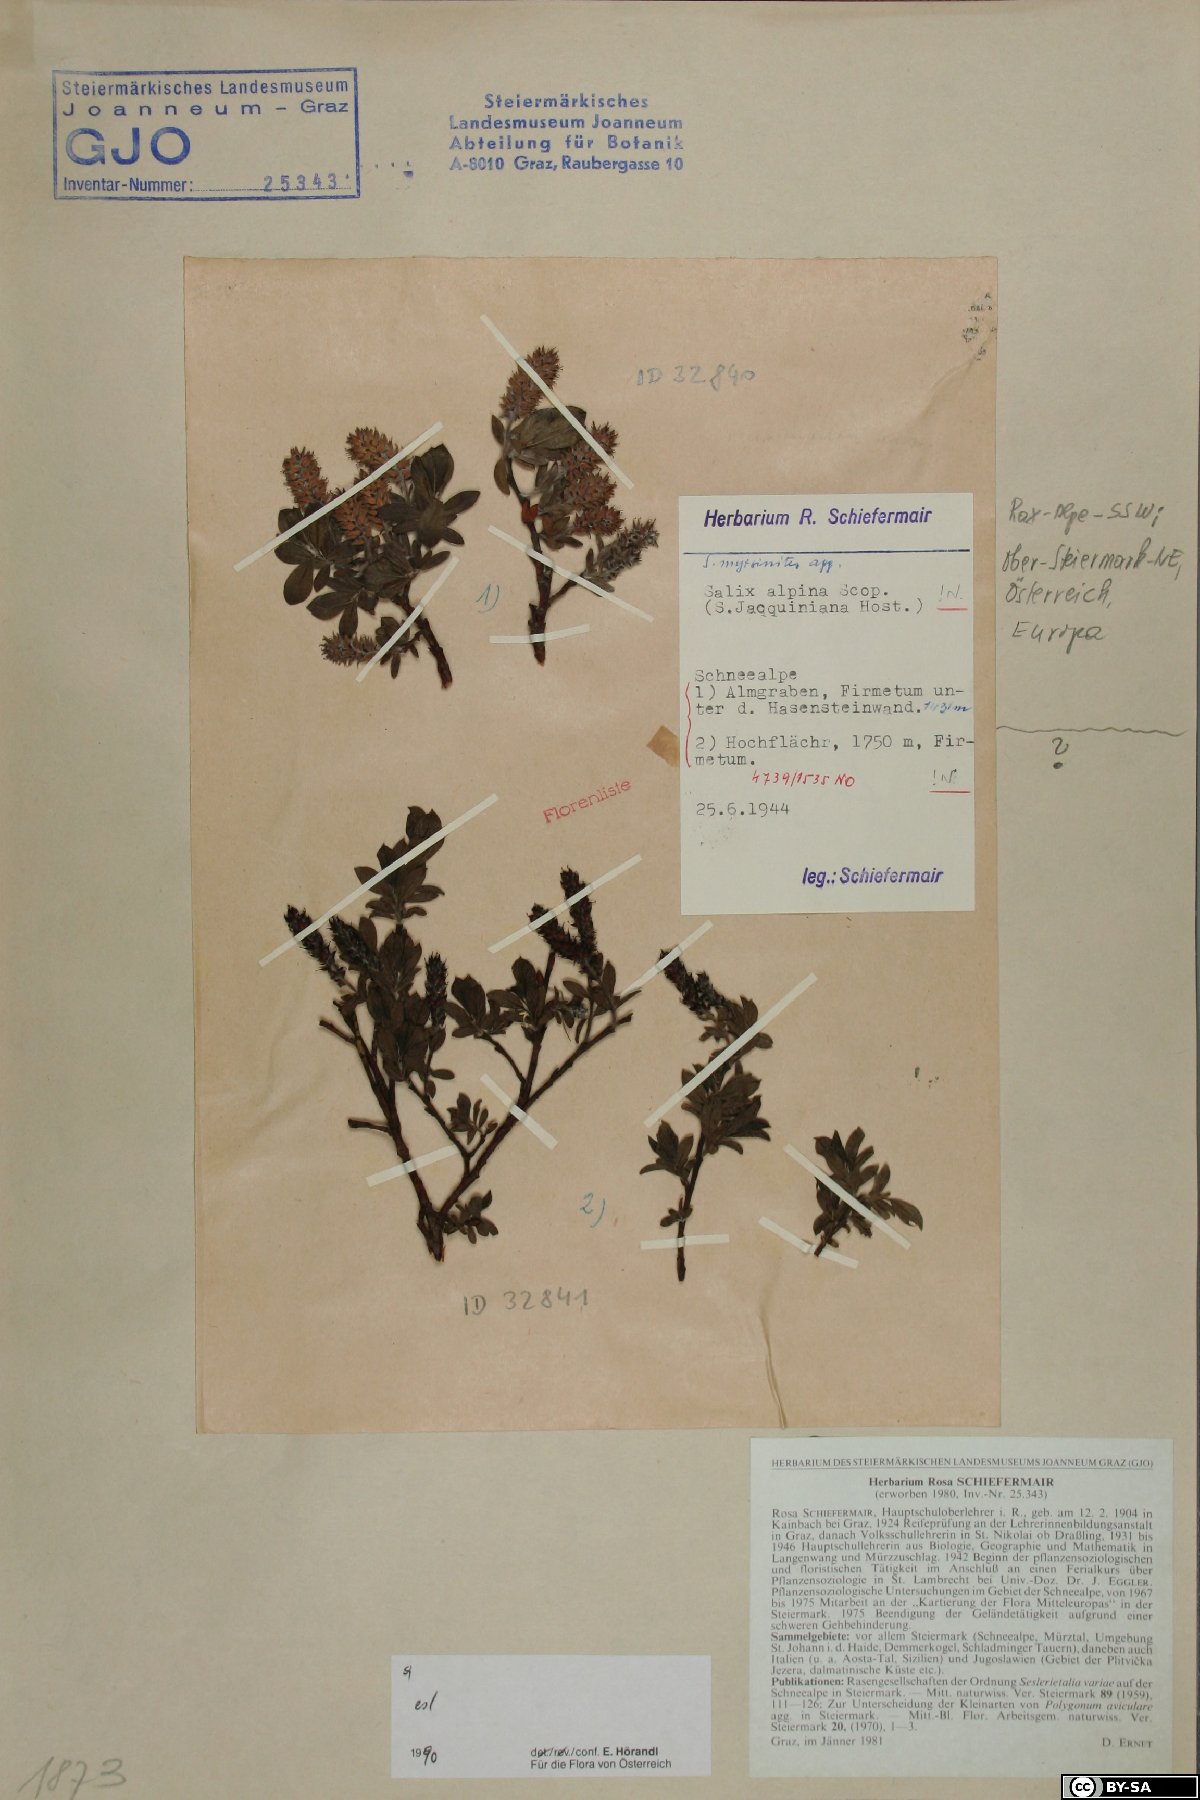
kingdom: Plantae
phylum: Tracheophyta
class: Magnoliopsida
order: Malpighiales
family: Salicaceae
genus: Salix
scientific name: Salix alpina
